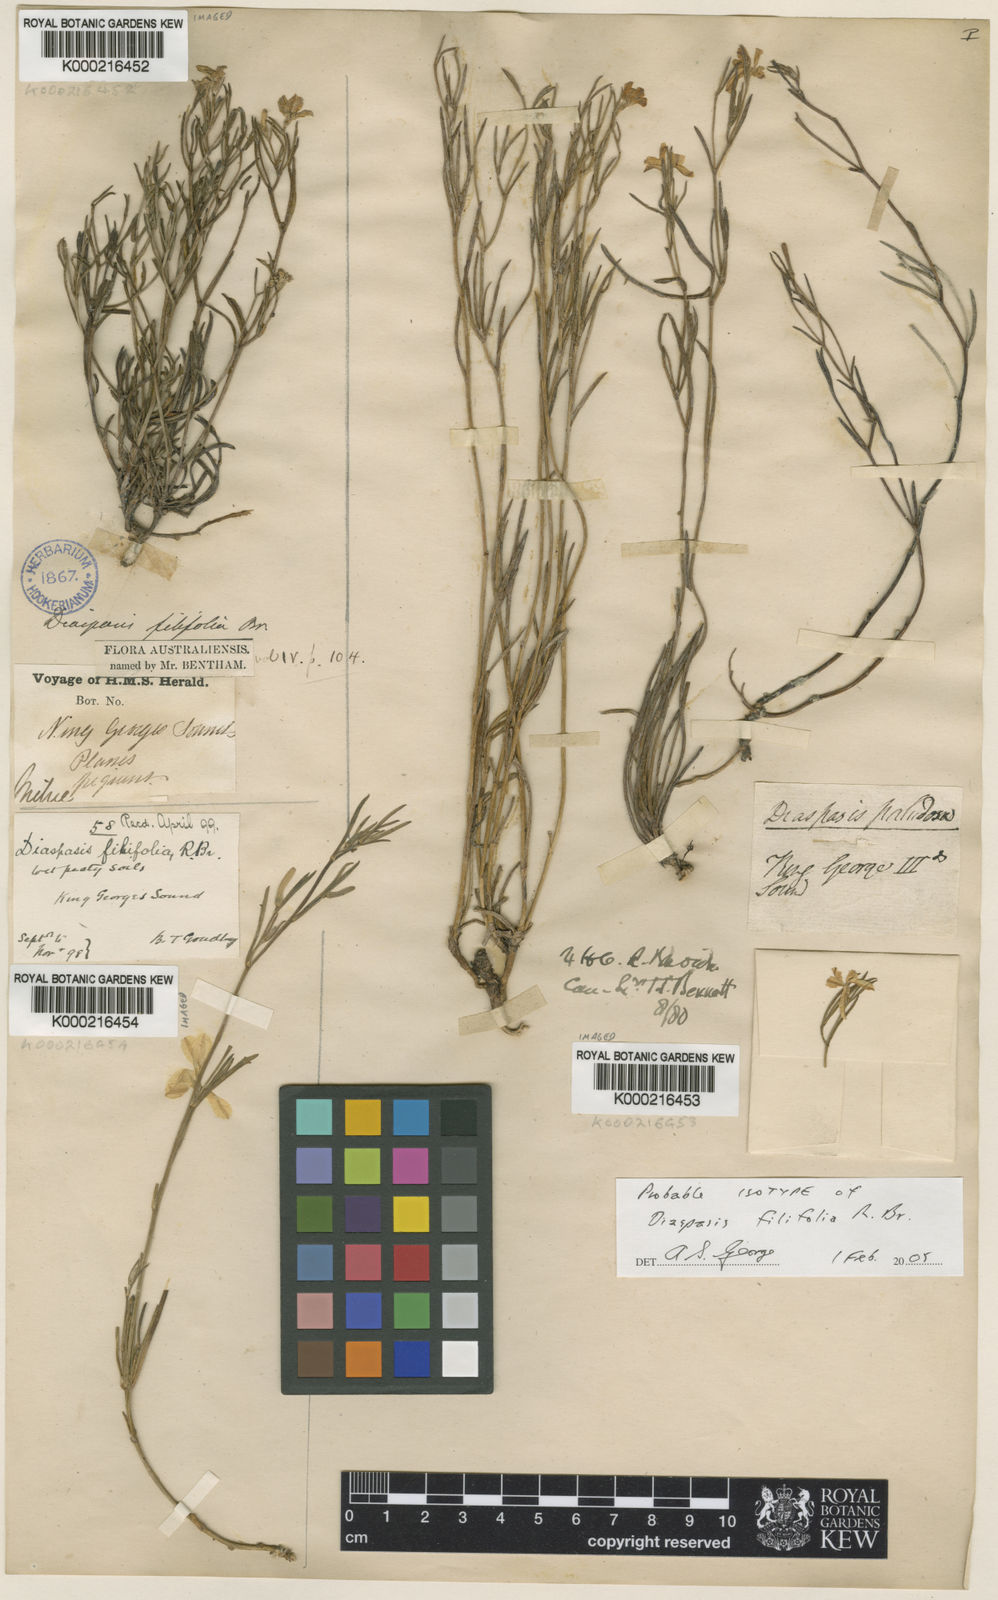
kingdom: Plantae
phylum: Tracheophyta
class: Magnoliopsida
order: Asterales
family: Goodeniaceae
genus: Scaevola
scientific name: Scaevola filifolia
